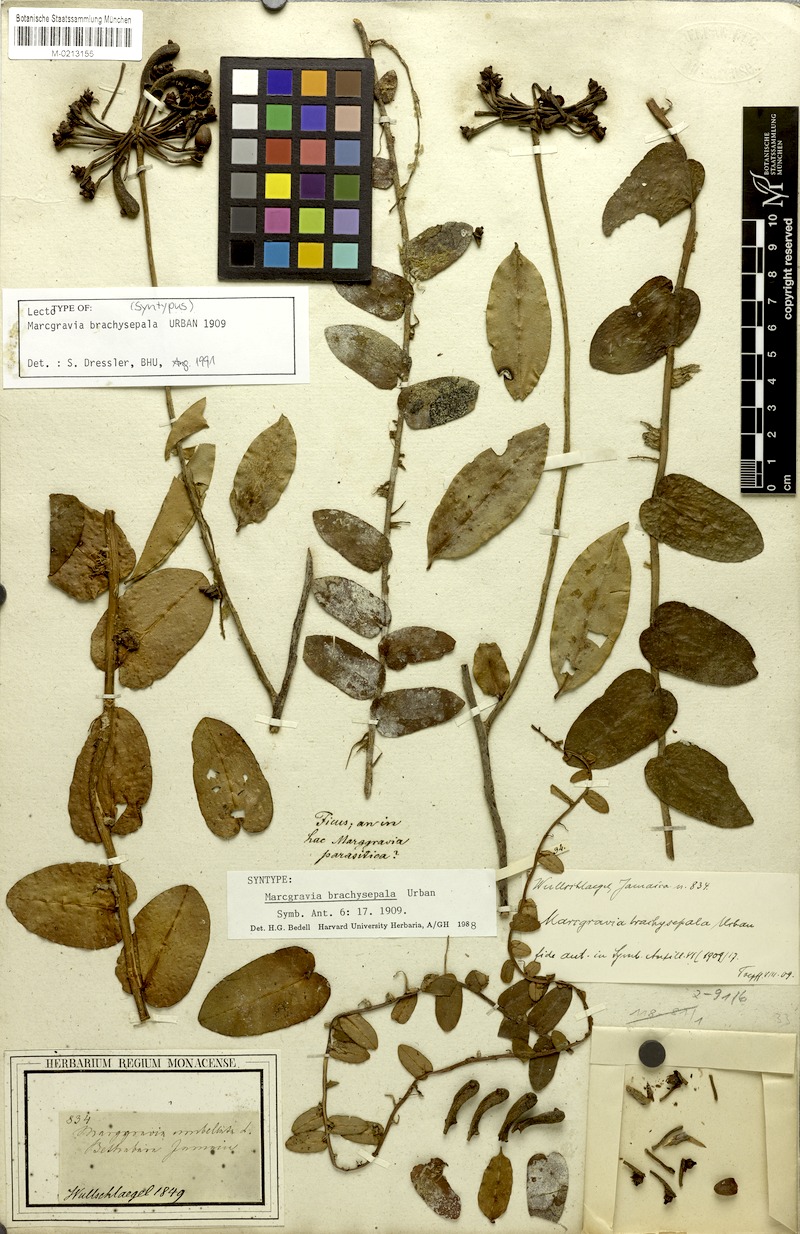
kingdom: Plantae
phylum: Tracheophyta
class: Magnoliopsida
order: Ericales
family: Marcgraviaceae
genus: Marcgravia
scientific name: Marcgravia brachysepala
